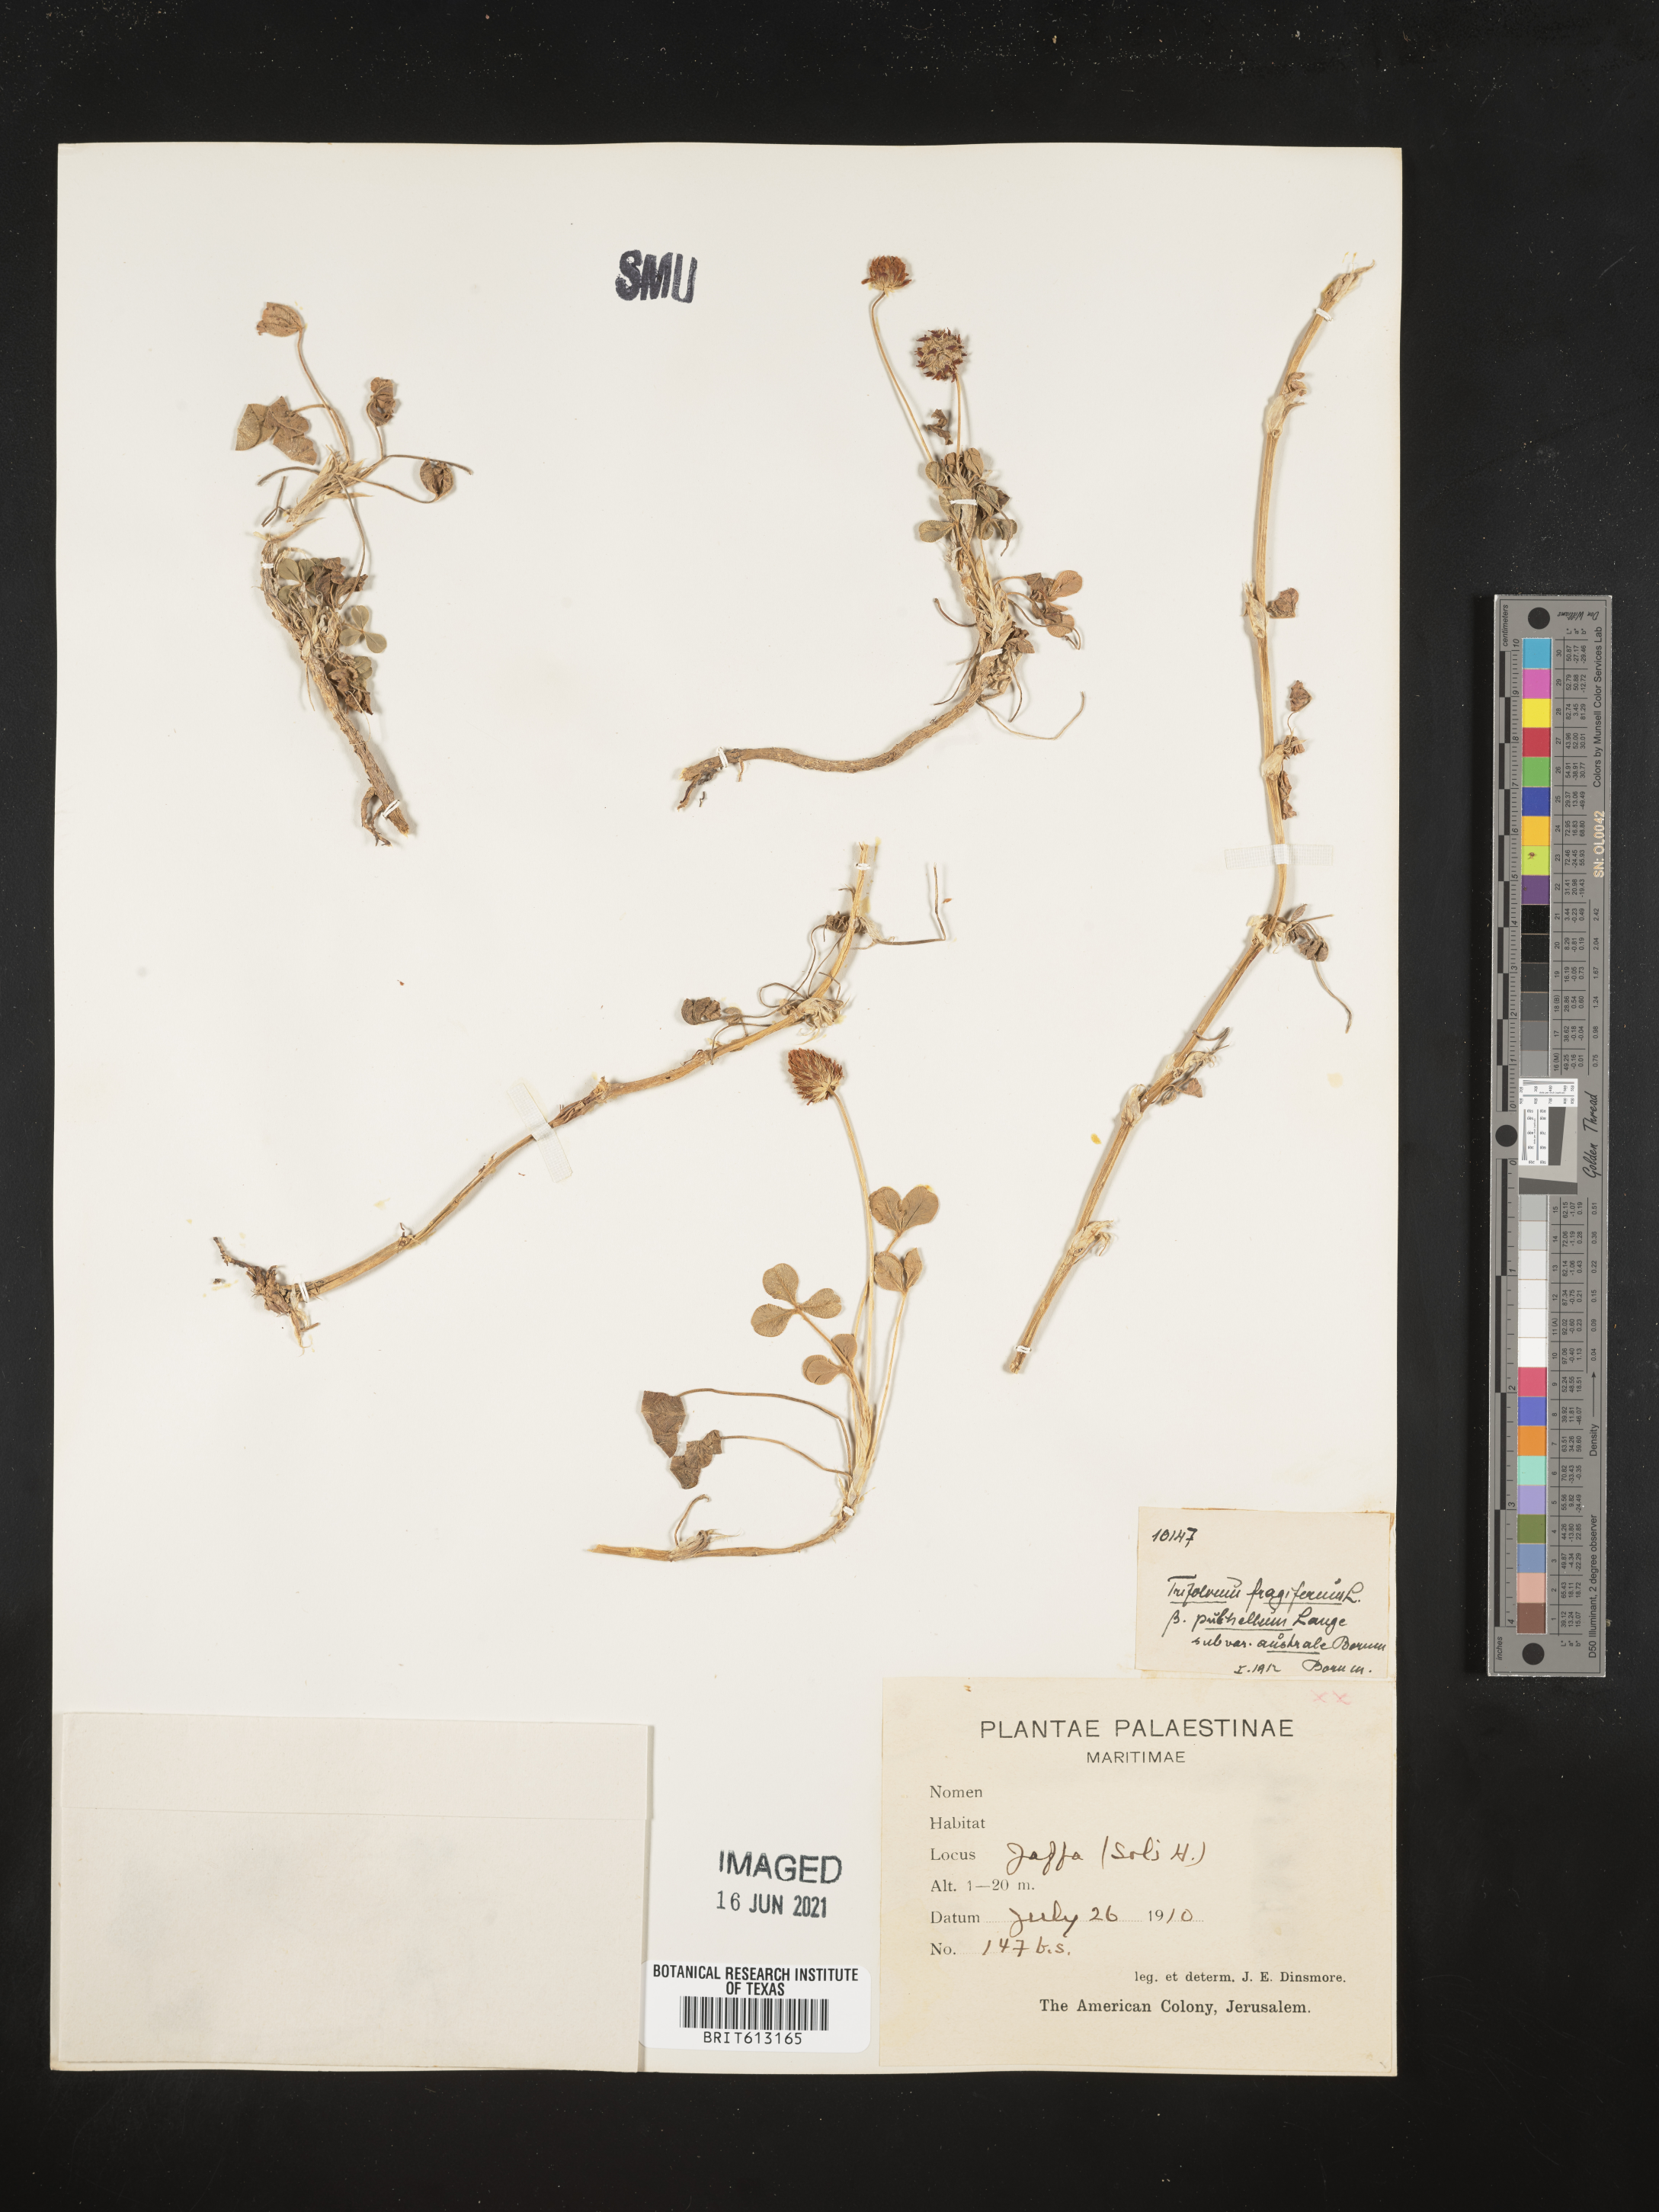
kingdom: Plantae
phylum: Tracheophyta
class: Magnoliopsida
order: Fabales
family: Fabaceae
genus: Trifolium
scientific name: Trifolium fragiferum
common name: Strawberry clover
